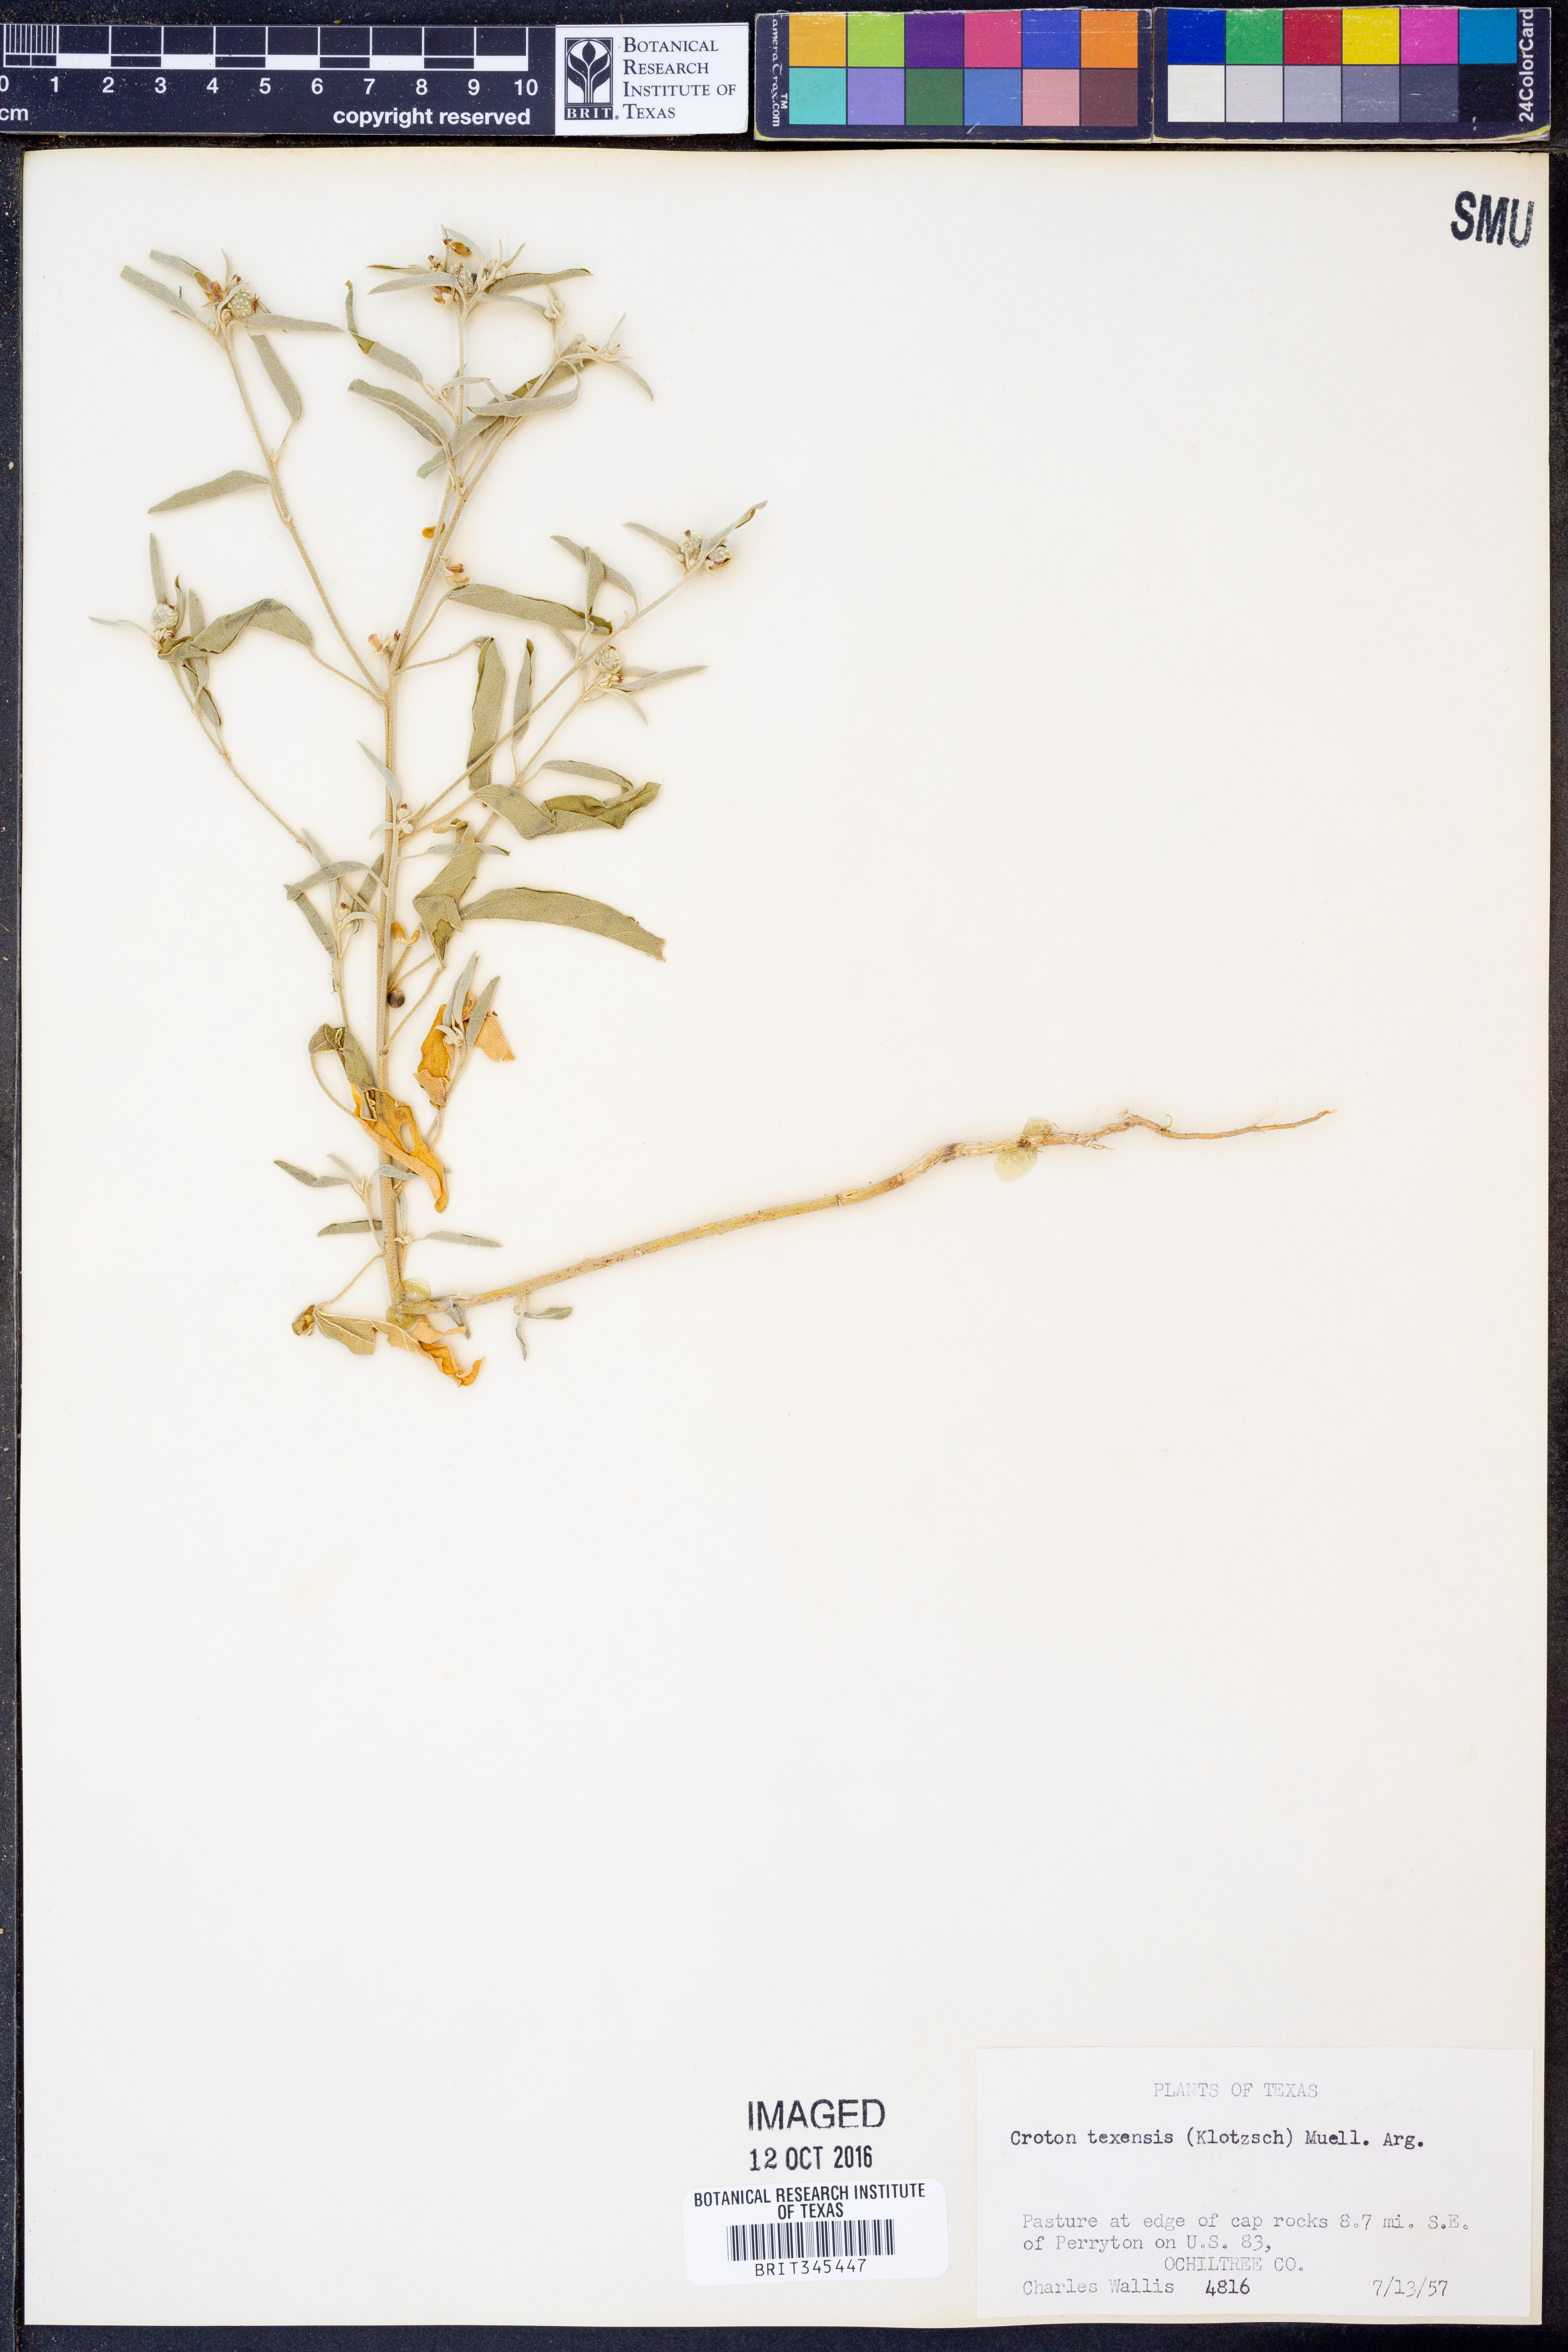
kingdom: Plantae
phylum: Tracheophyta
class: Magnoliopsida
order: Malpighiales
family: Euphorbiaceae
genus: Croton
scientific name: Croton texensis
